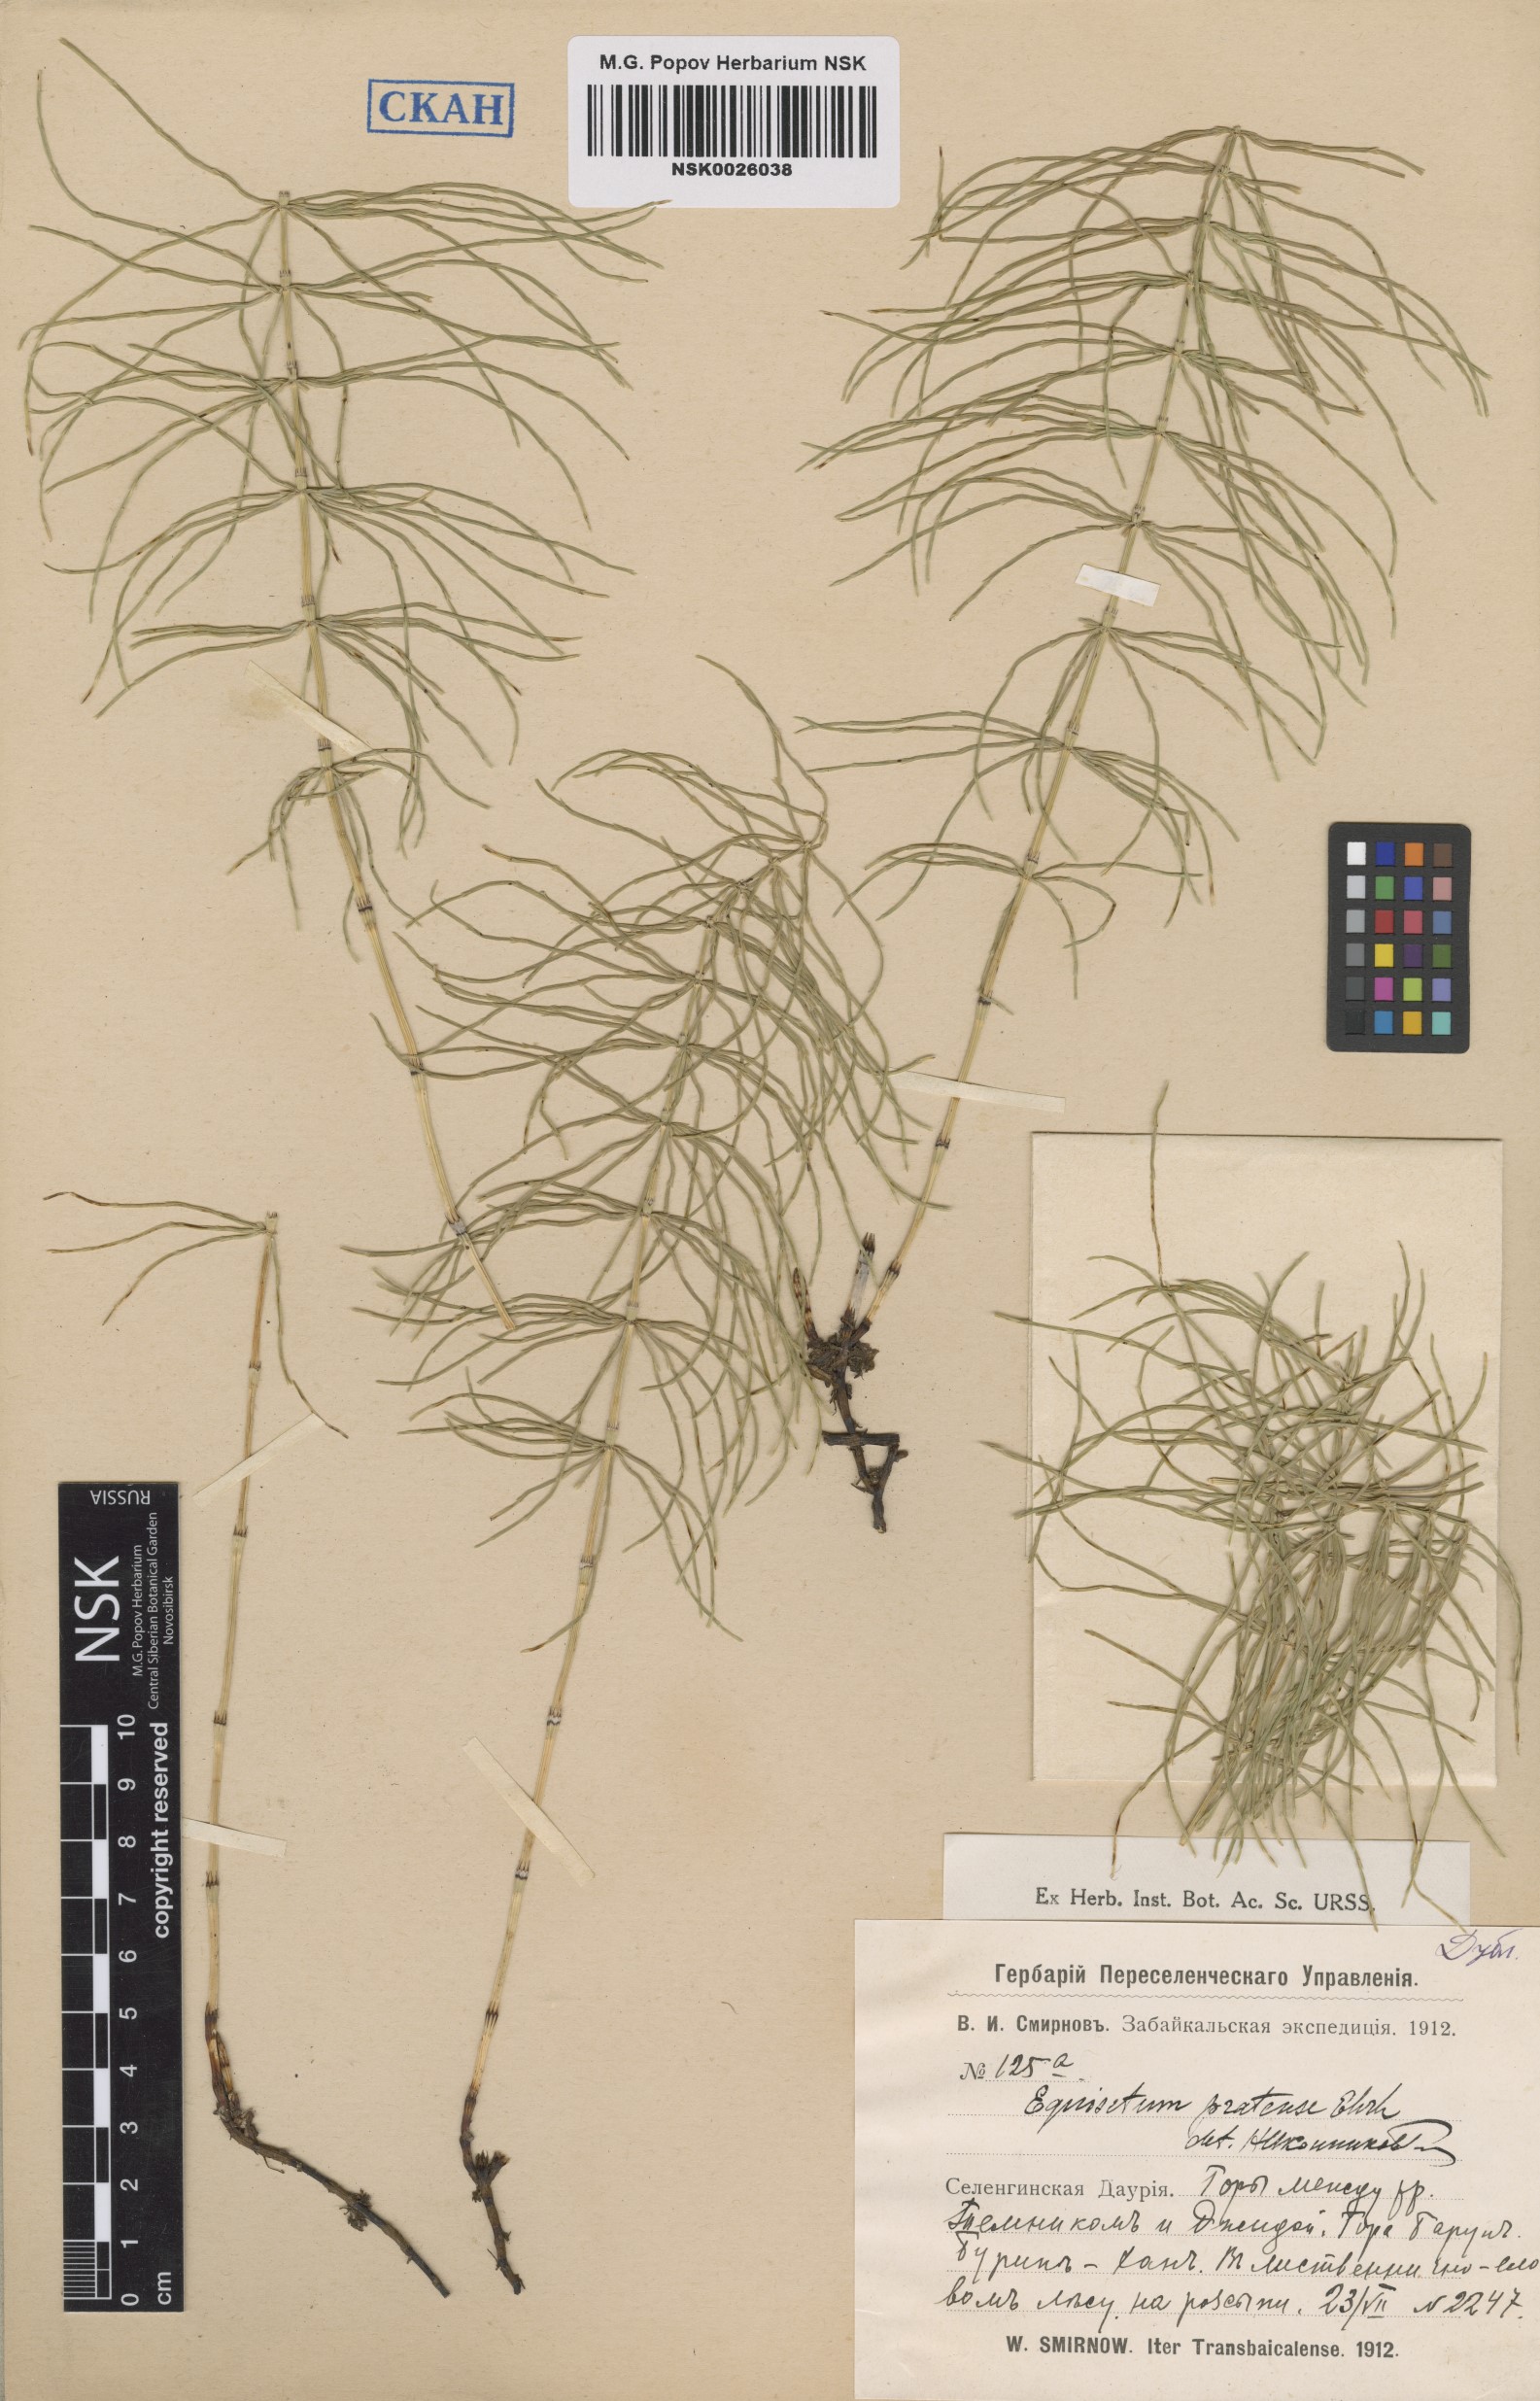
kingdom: Plantae
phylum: Tracheophyta
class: Polypodiopsida
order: Equisetales
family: Equisetaceae
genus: Equisetum
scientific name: Equisetum pratense
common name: Meadow horsetail
